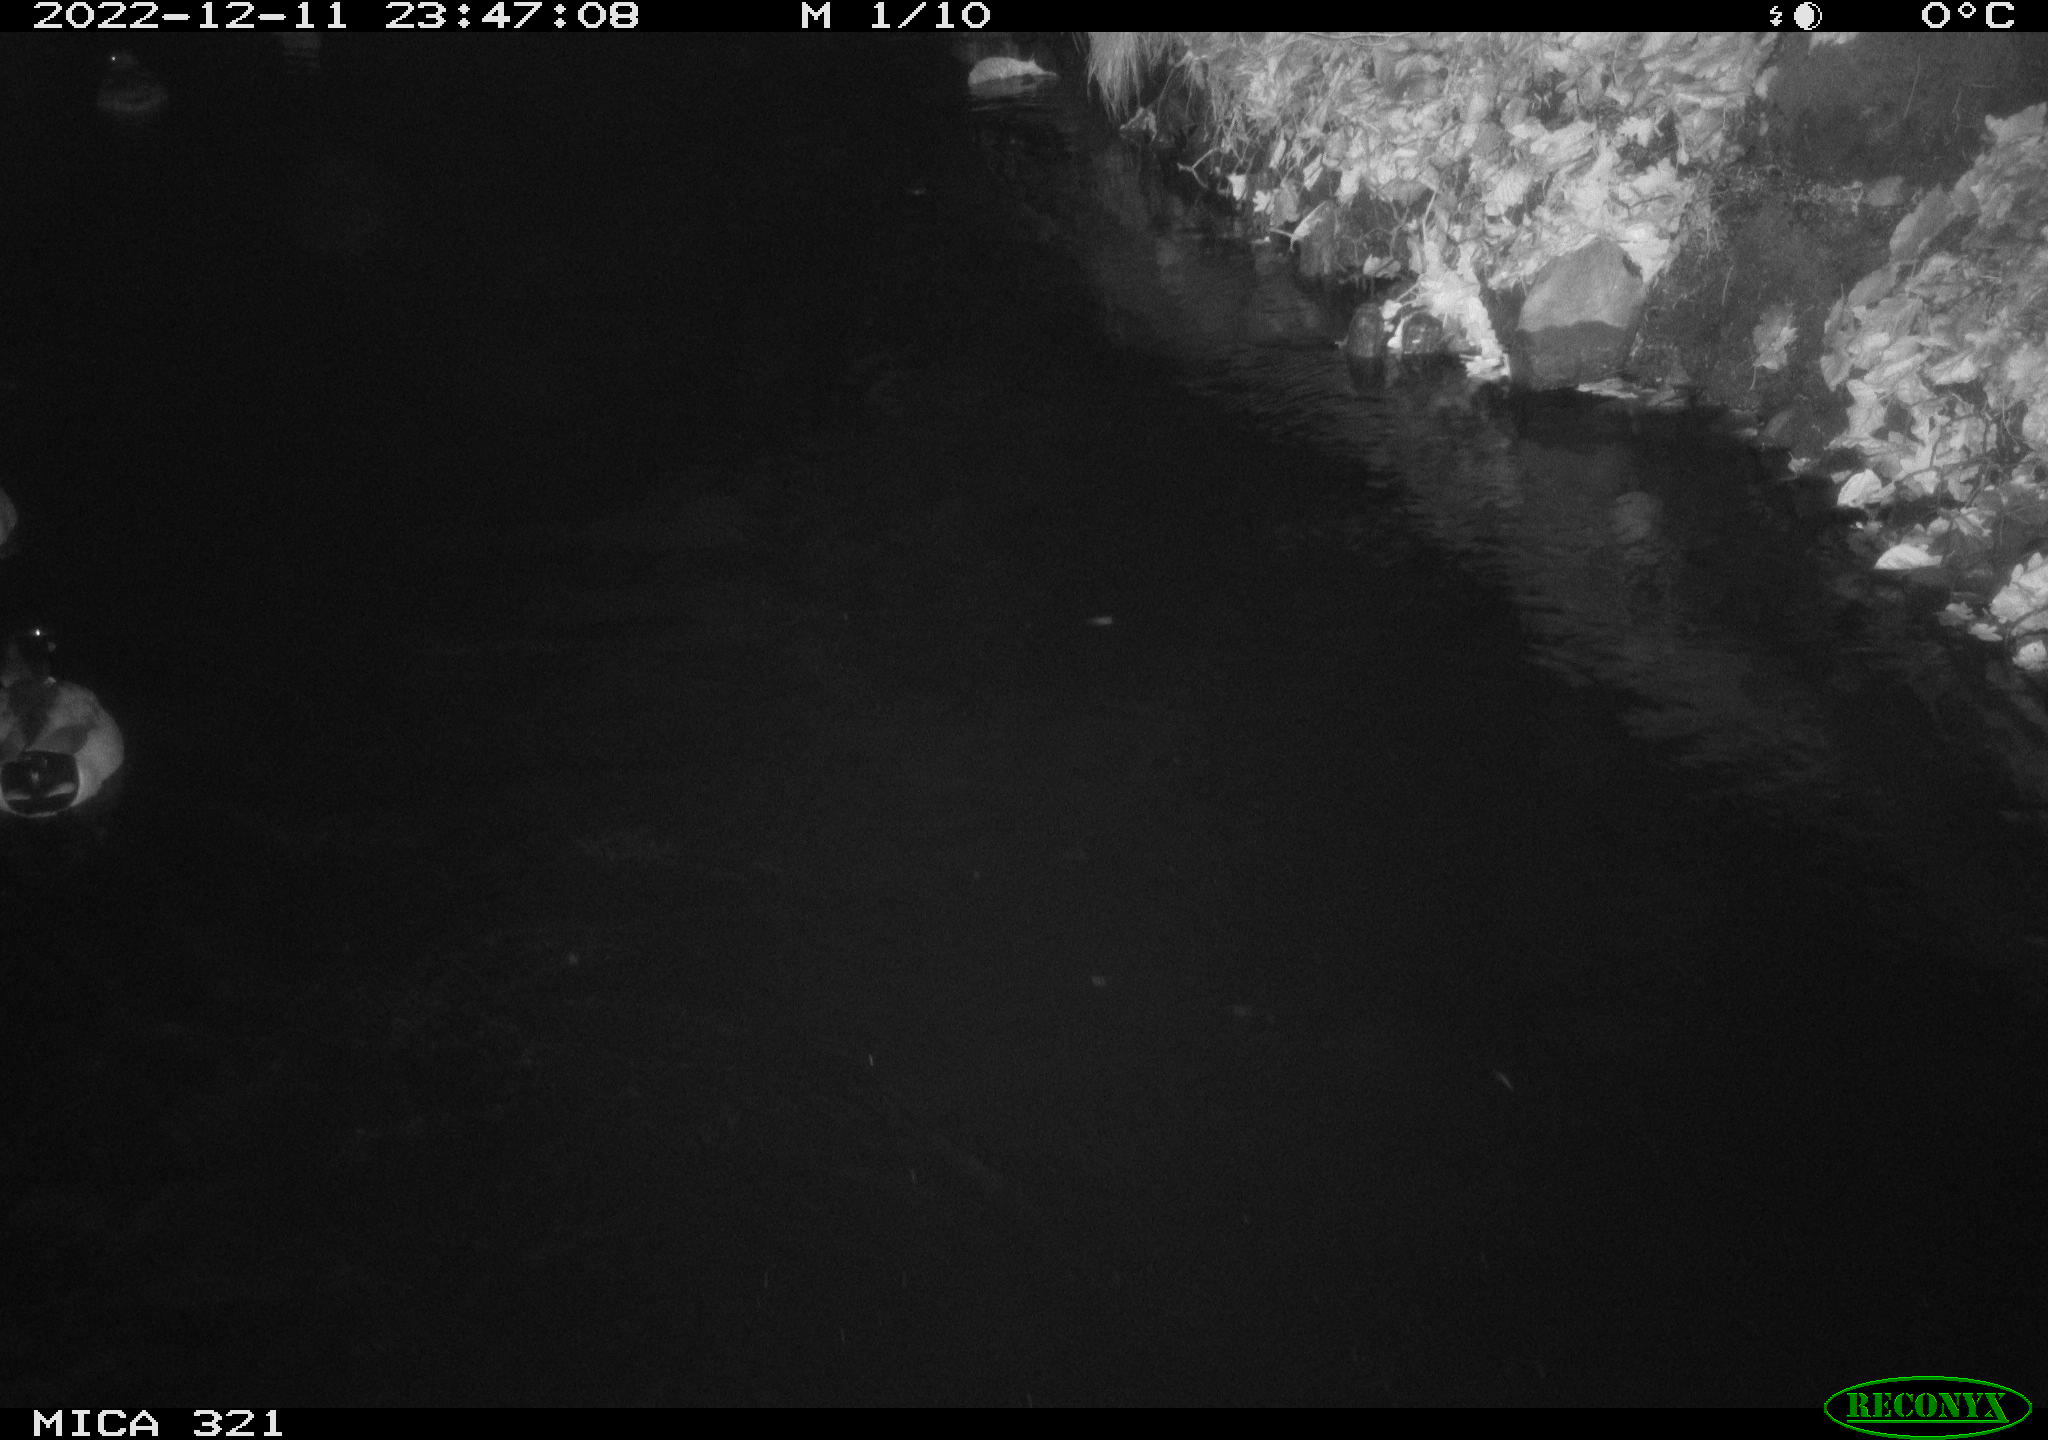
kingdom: Animalia
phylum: Chordata
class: Aves
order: Anseriformes
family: Anatidae
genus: Anas
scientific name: Anas
